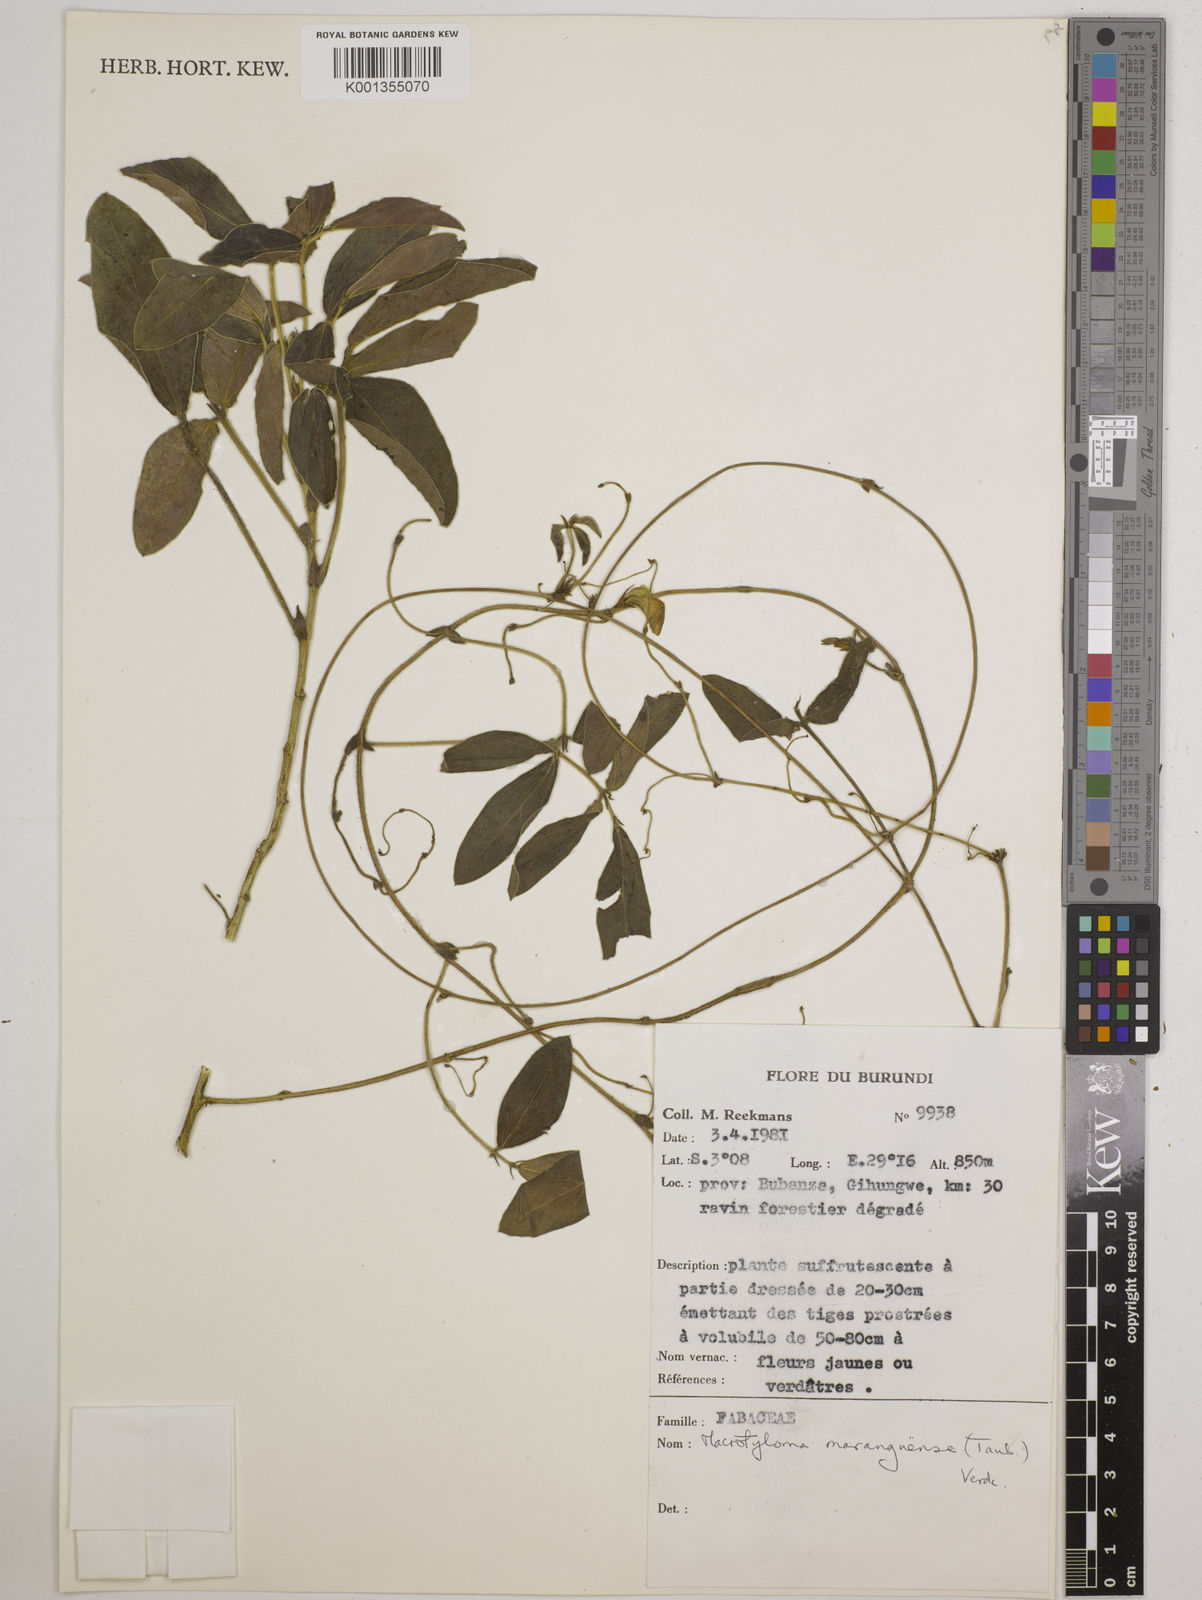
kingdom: Plantae
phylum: Tracheophyta
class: Magnoliopsida
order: Fabales
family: Fabaceae
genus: Macrotyloma
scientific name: Macrotyloma maranguense
